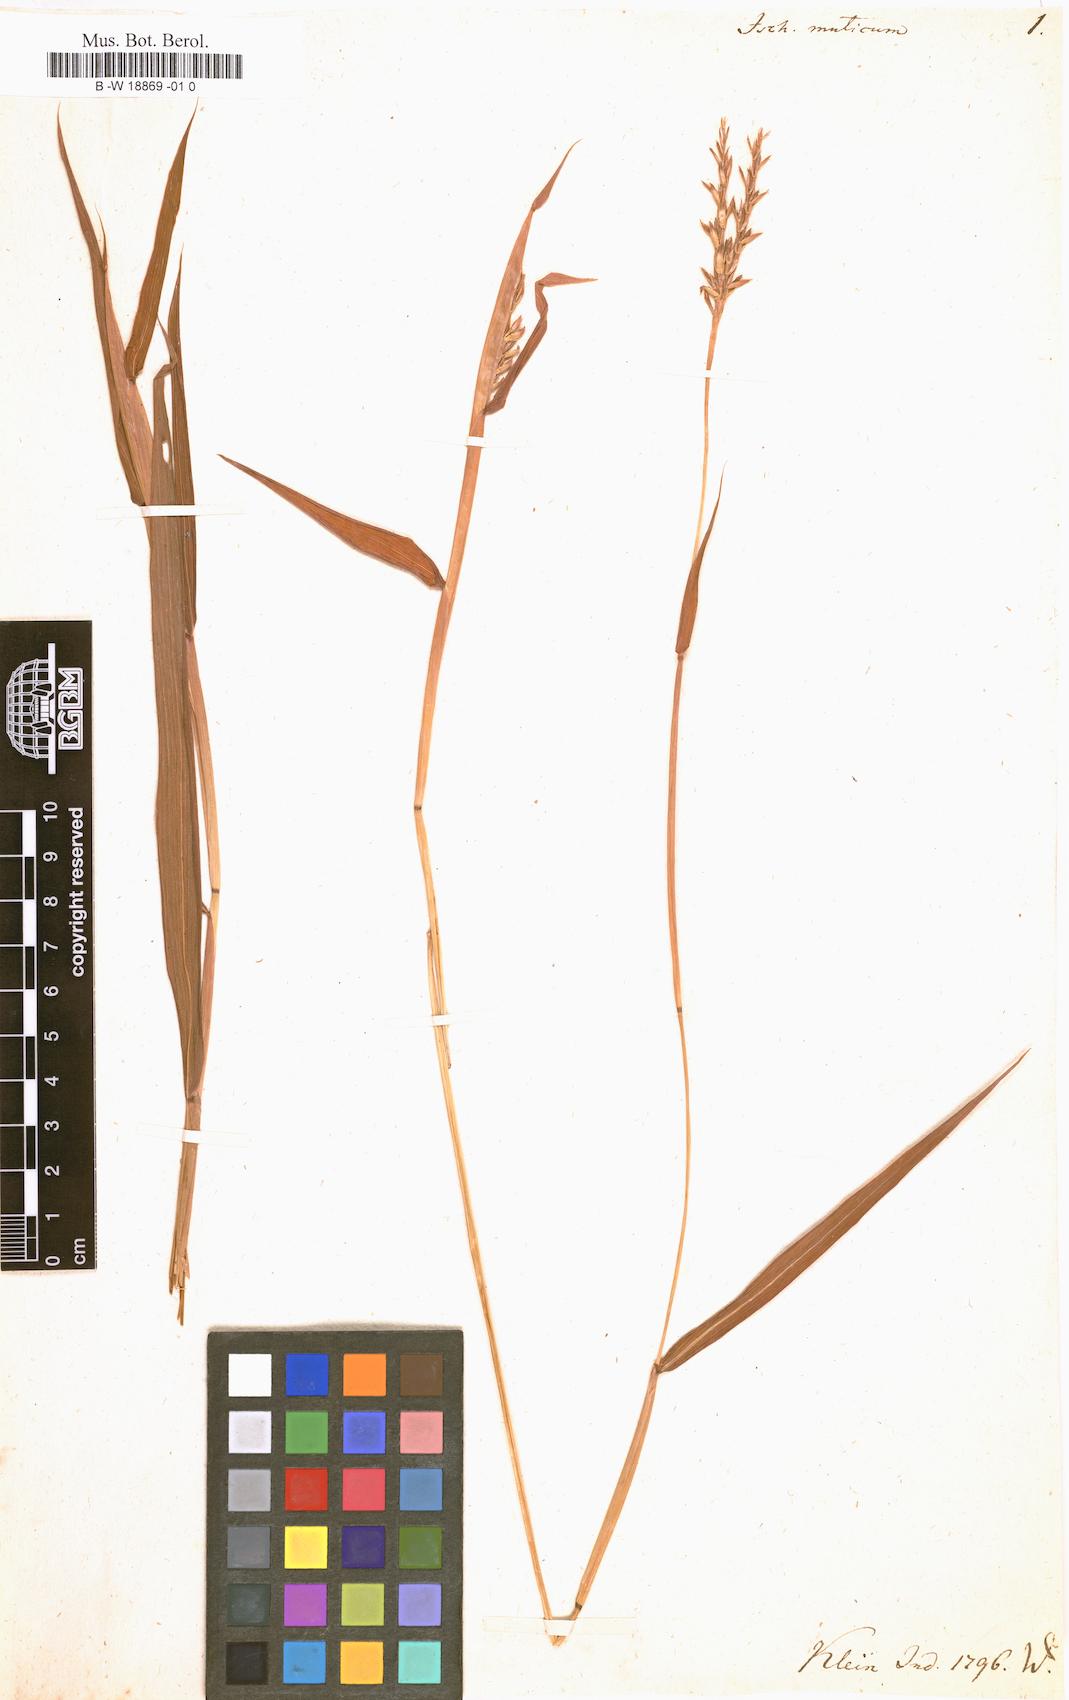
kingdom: Plantae
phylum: Tracheophyta
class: Liliopsida
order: Poales
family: Poaceae
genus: Ischaemum
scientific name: Ischaemum muticum
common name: Drought grass
